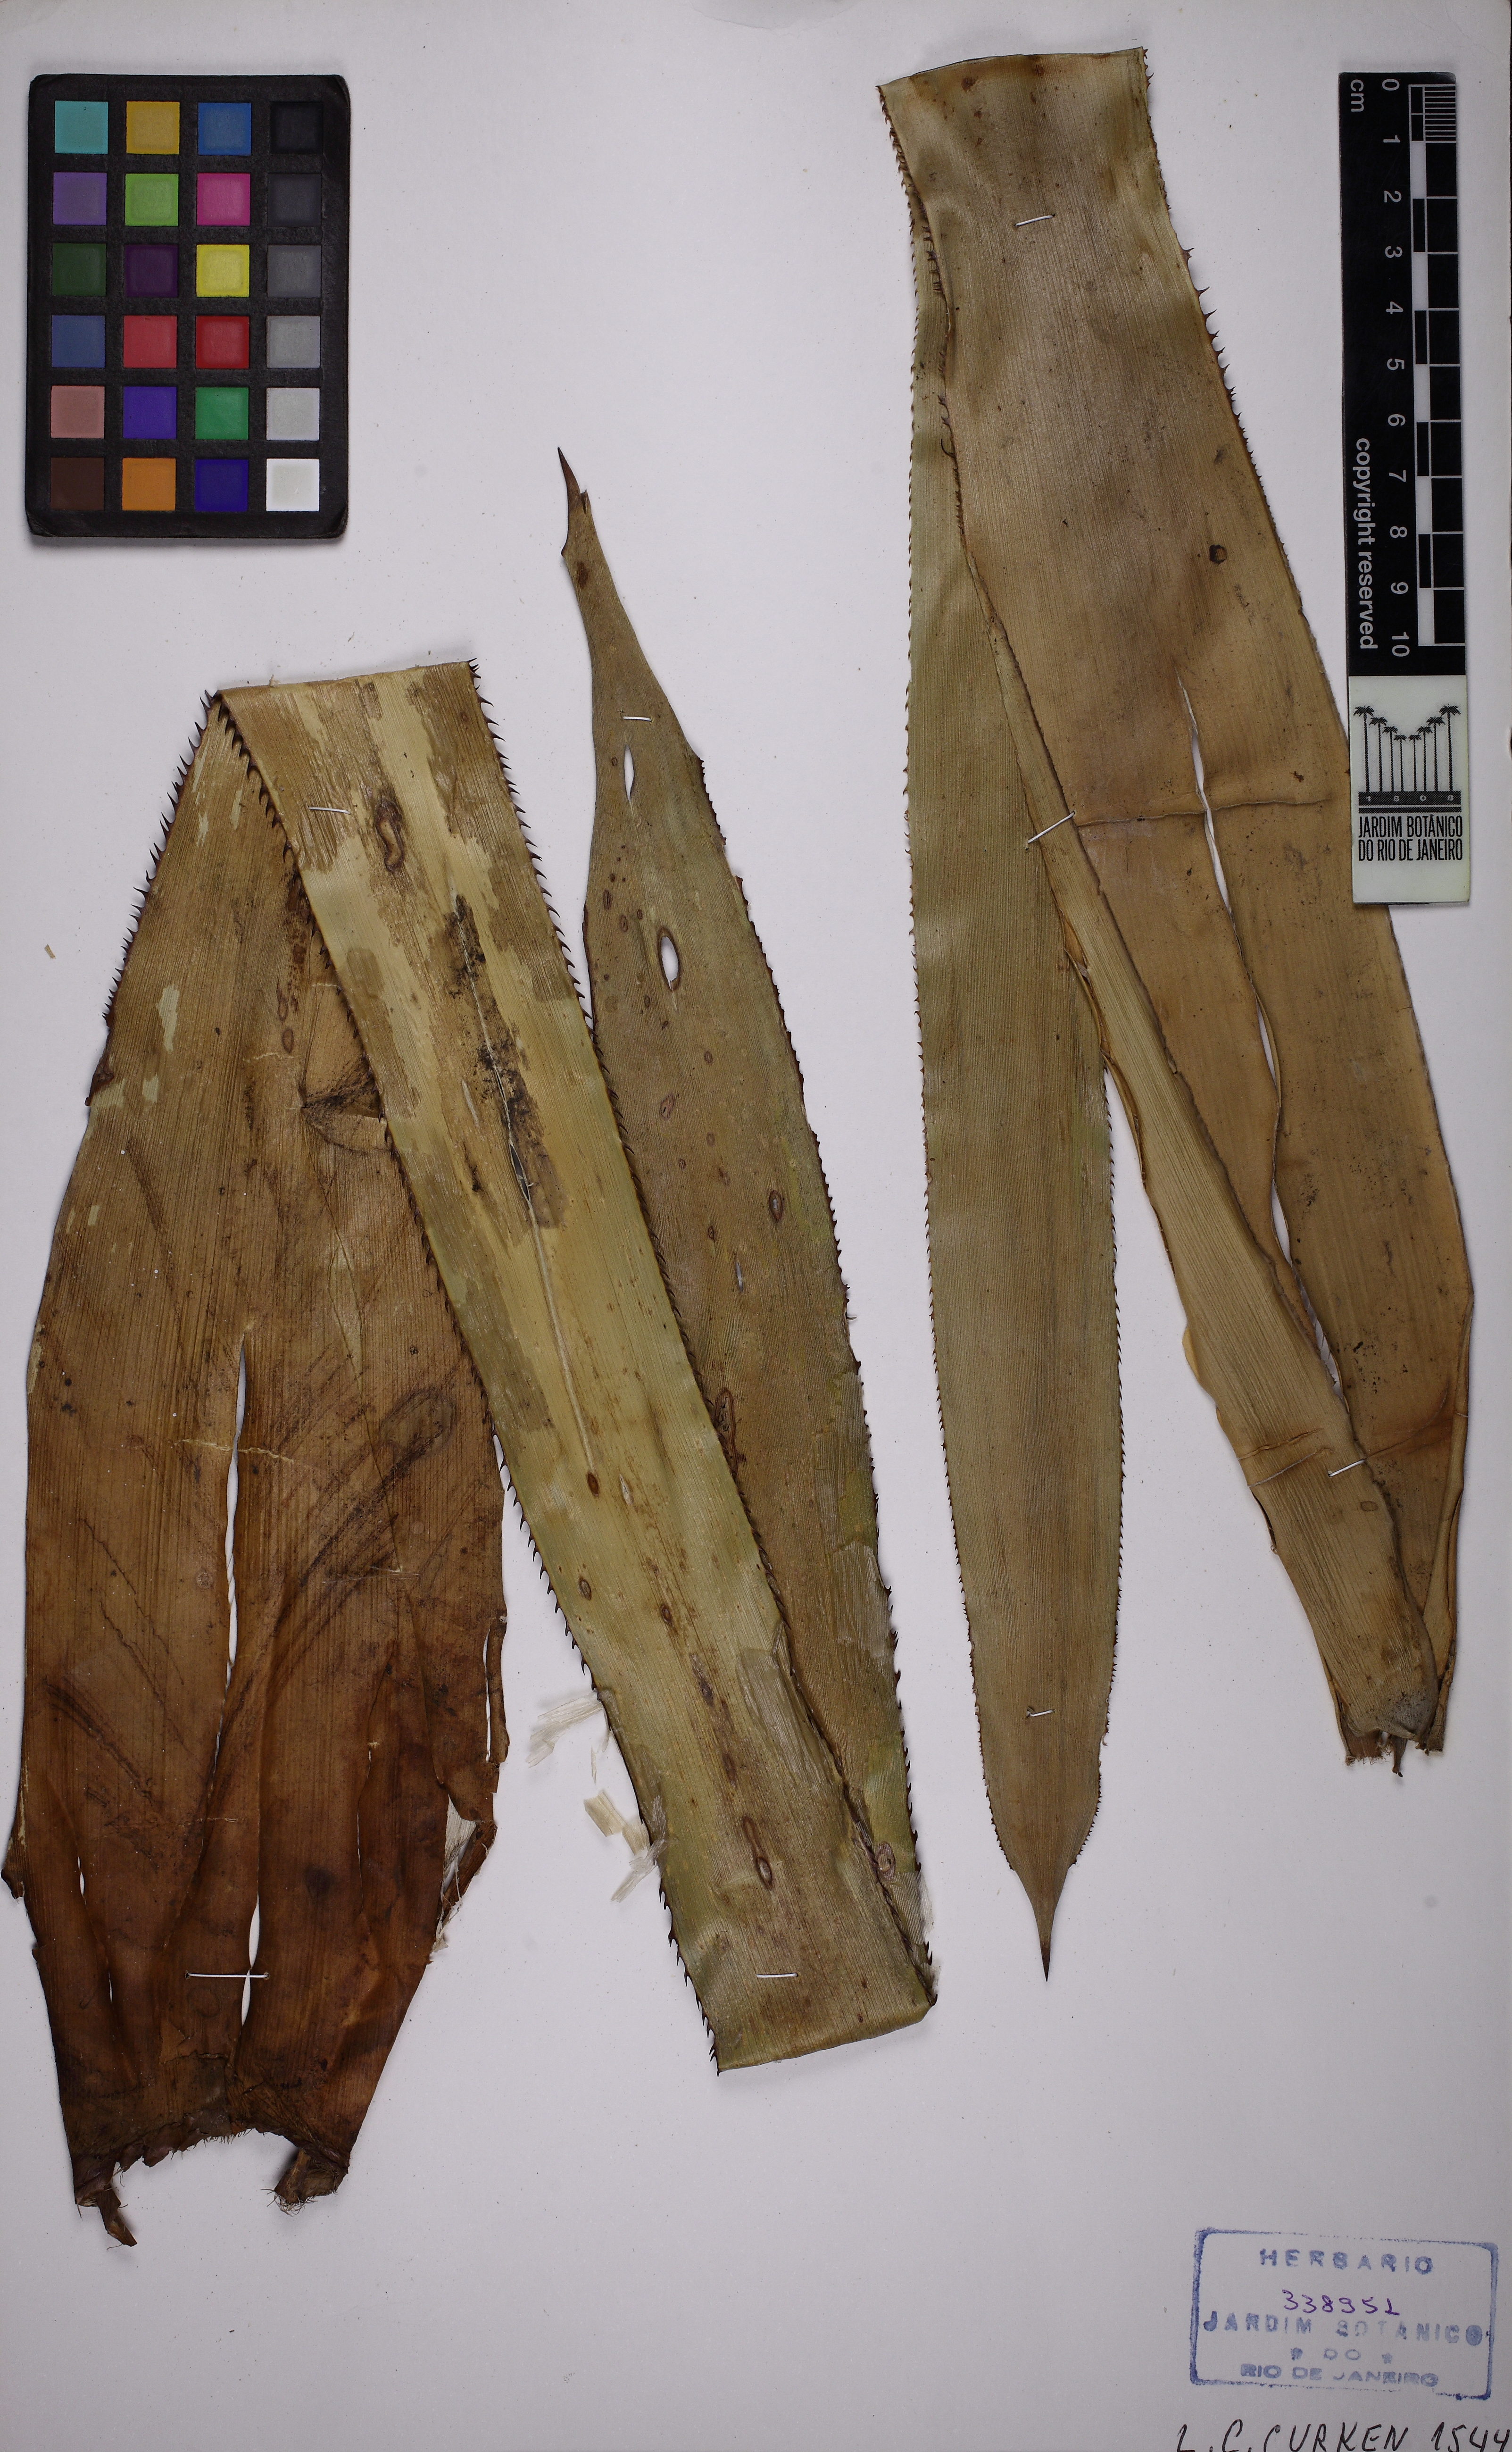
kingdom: Plantae
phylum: Tracheophyta
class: Liliopsida
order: Poales
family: Bromeliaceae
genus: Quesnelia
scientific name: Quesnelia quesneliana
